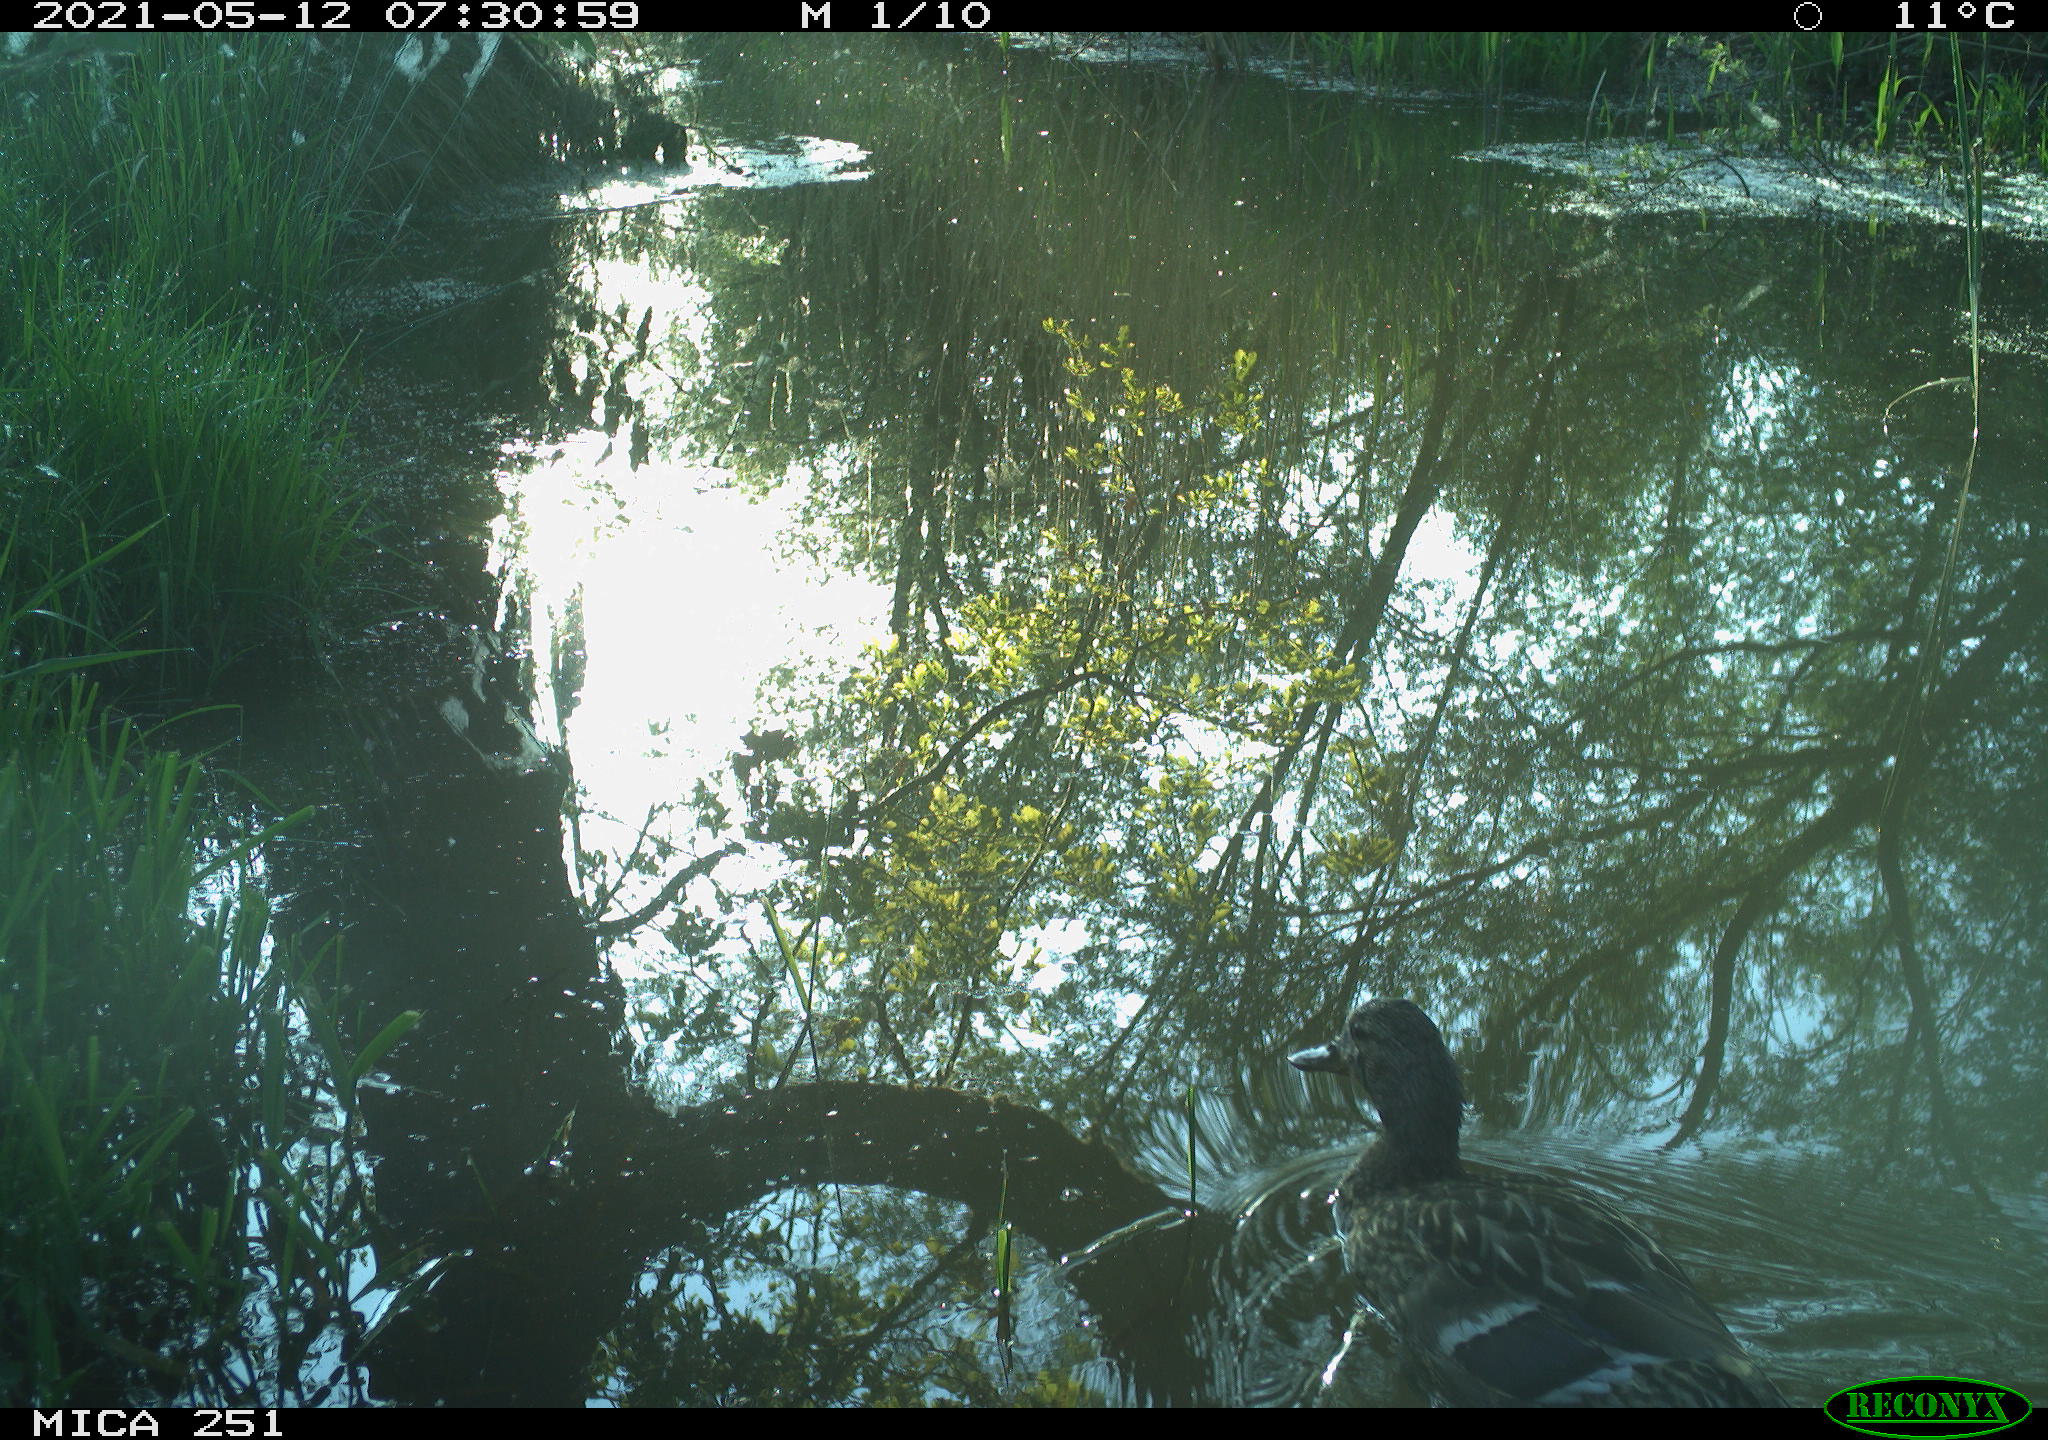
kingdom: Animalia
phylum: Chordata
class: Aves
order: Anseriformes
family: Anatidae
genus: Anas
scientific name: Anas platyrhynchos
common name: Mallard
